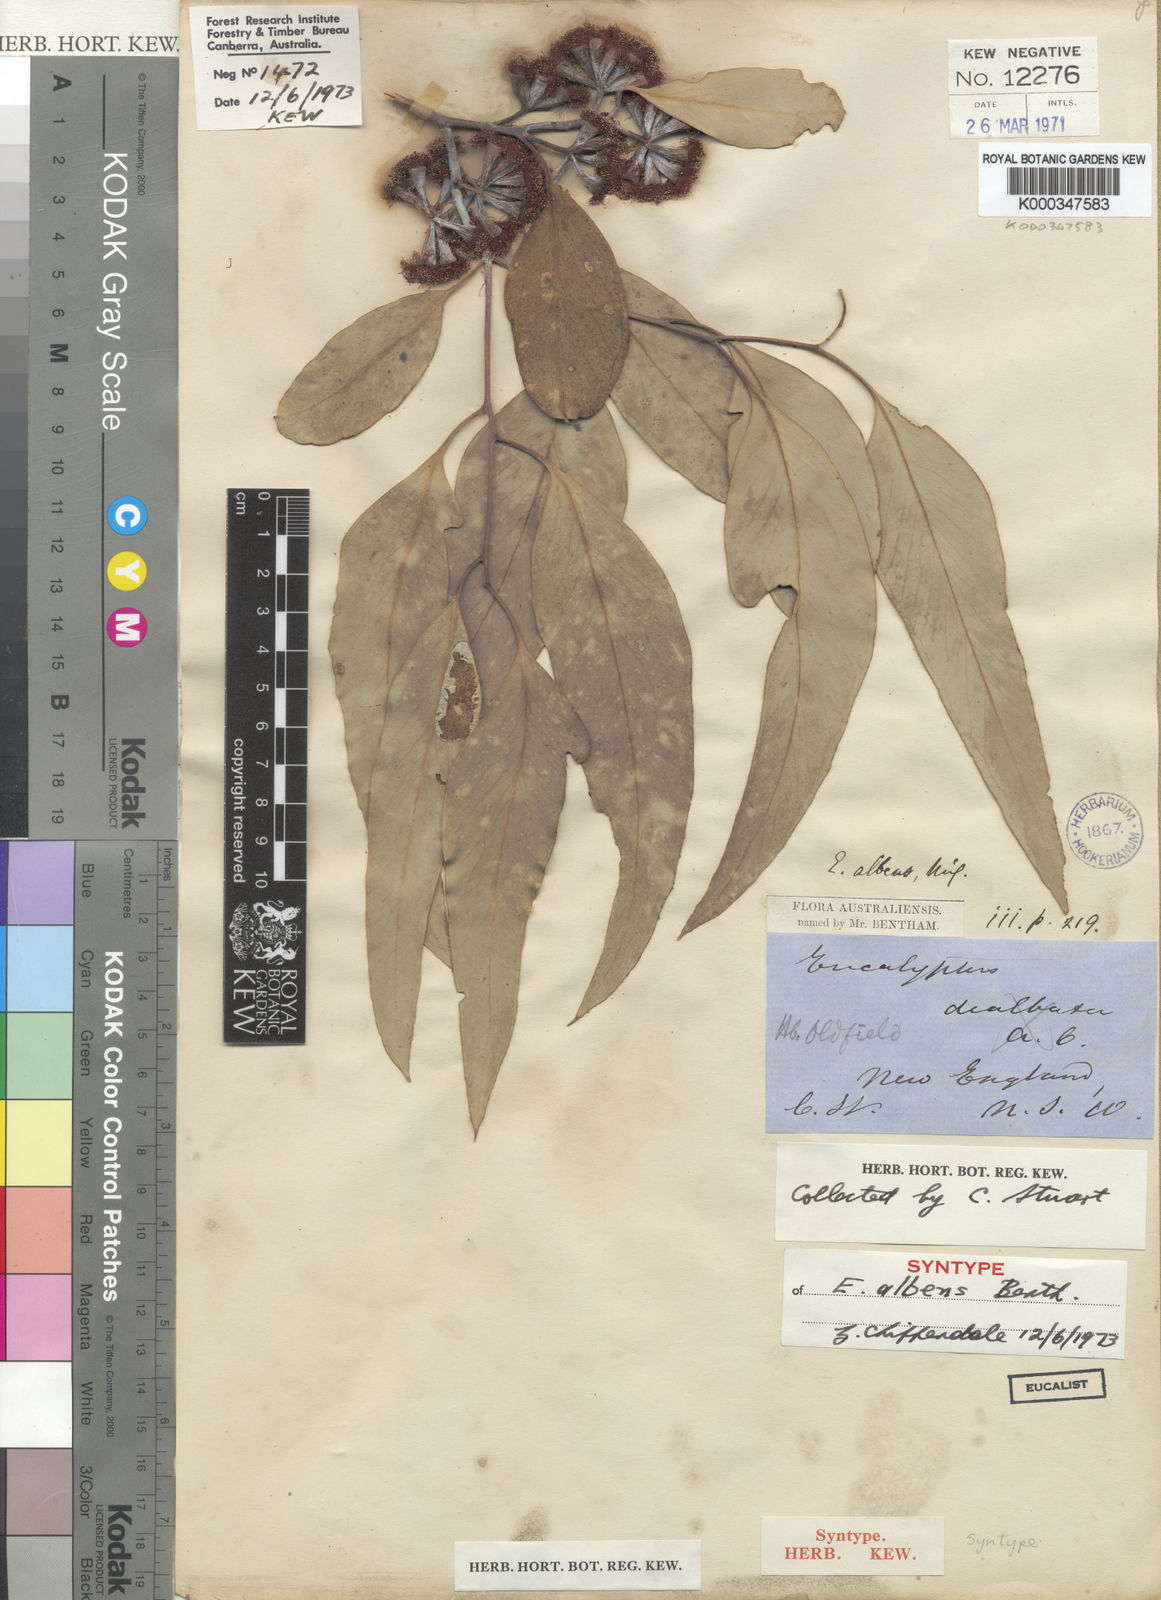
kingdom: Plantae
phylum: Tracheophyta
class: Magnoliopsida
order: Myrtales
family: Myrtaceae
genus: Eucalyptus
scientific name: Eucalyptus albens
